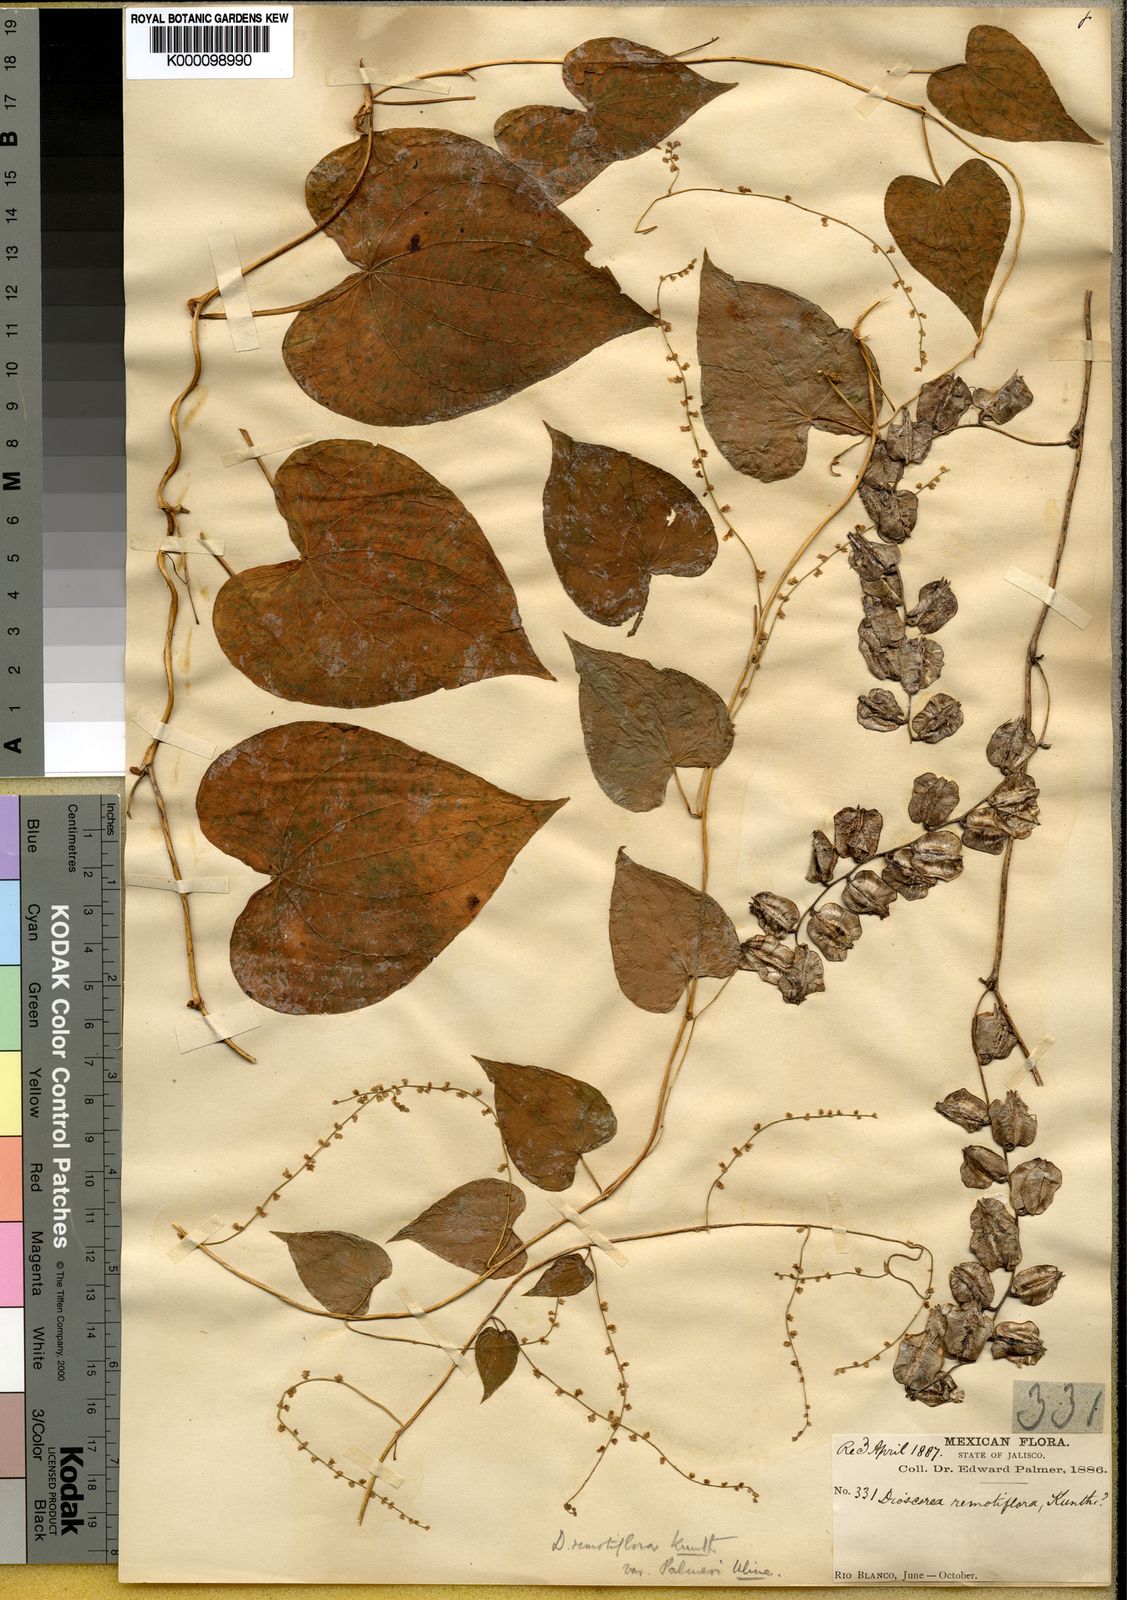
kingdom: Plantae
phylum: Tracheophyta
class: Liliopsida
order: Dioscoreales
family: Dioscoreaceae
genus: Dioscorea
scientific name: Dioscorea remotiflora
